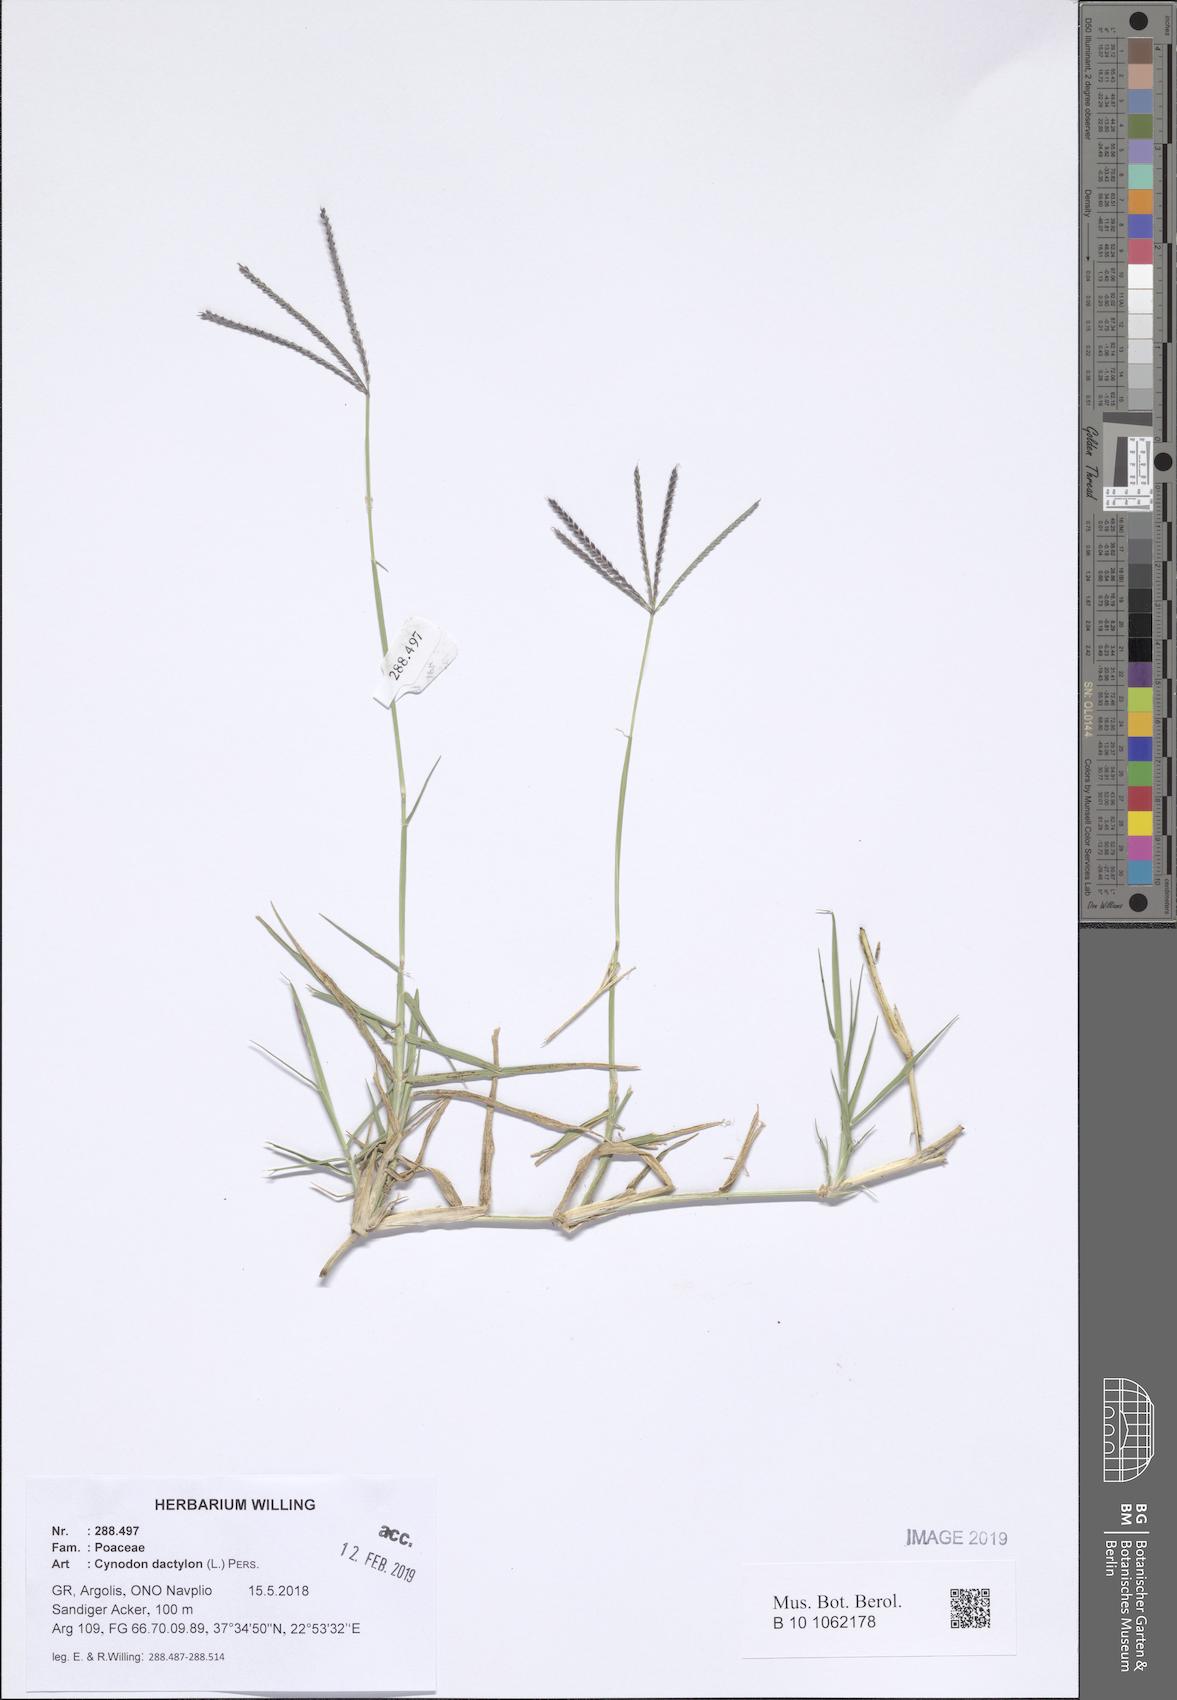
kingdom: Plantae
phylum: Tracheophyta
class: Liliopsida
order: Poales
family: Poaceae
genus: Cynodon
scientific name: Cynodon dactylon
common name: Bermuda grass
